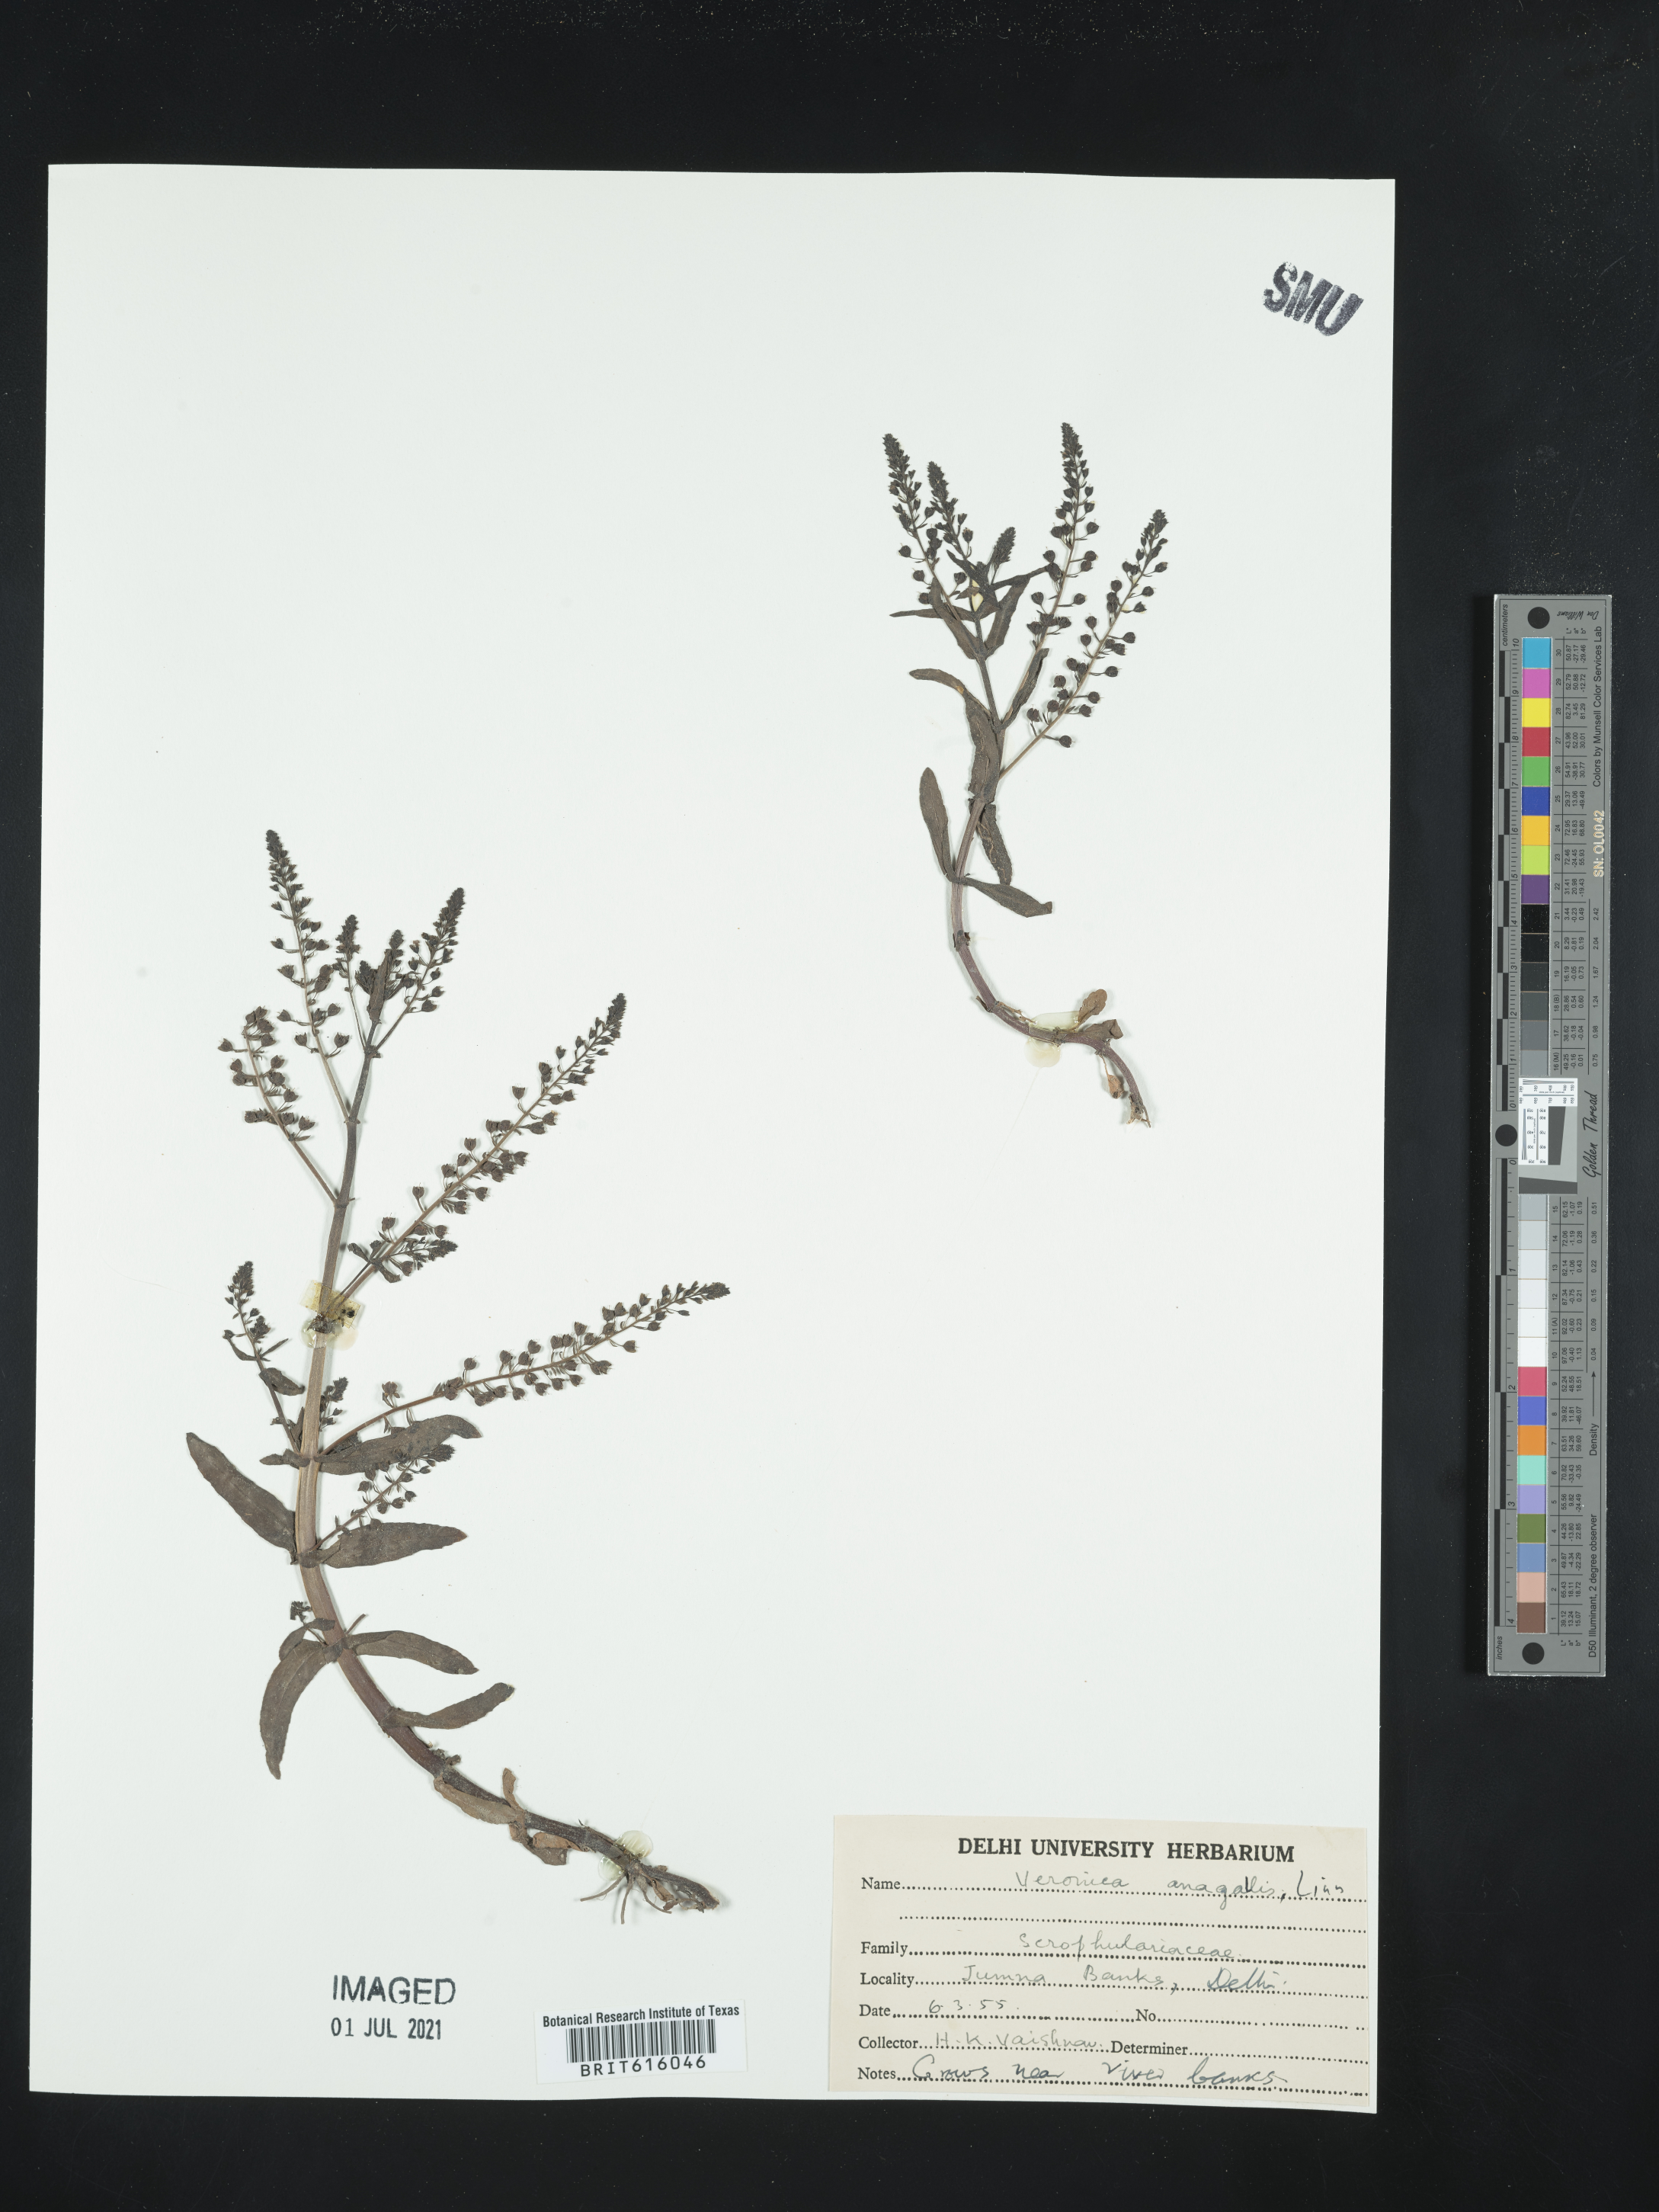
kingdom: Plantae
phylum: Tracheophyta
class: Magnoliopsida
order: Lamiales
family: Plantaginaceae
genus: Veronica
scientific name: Veronica anagallis-aquatica
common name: Water speedwell
